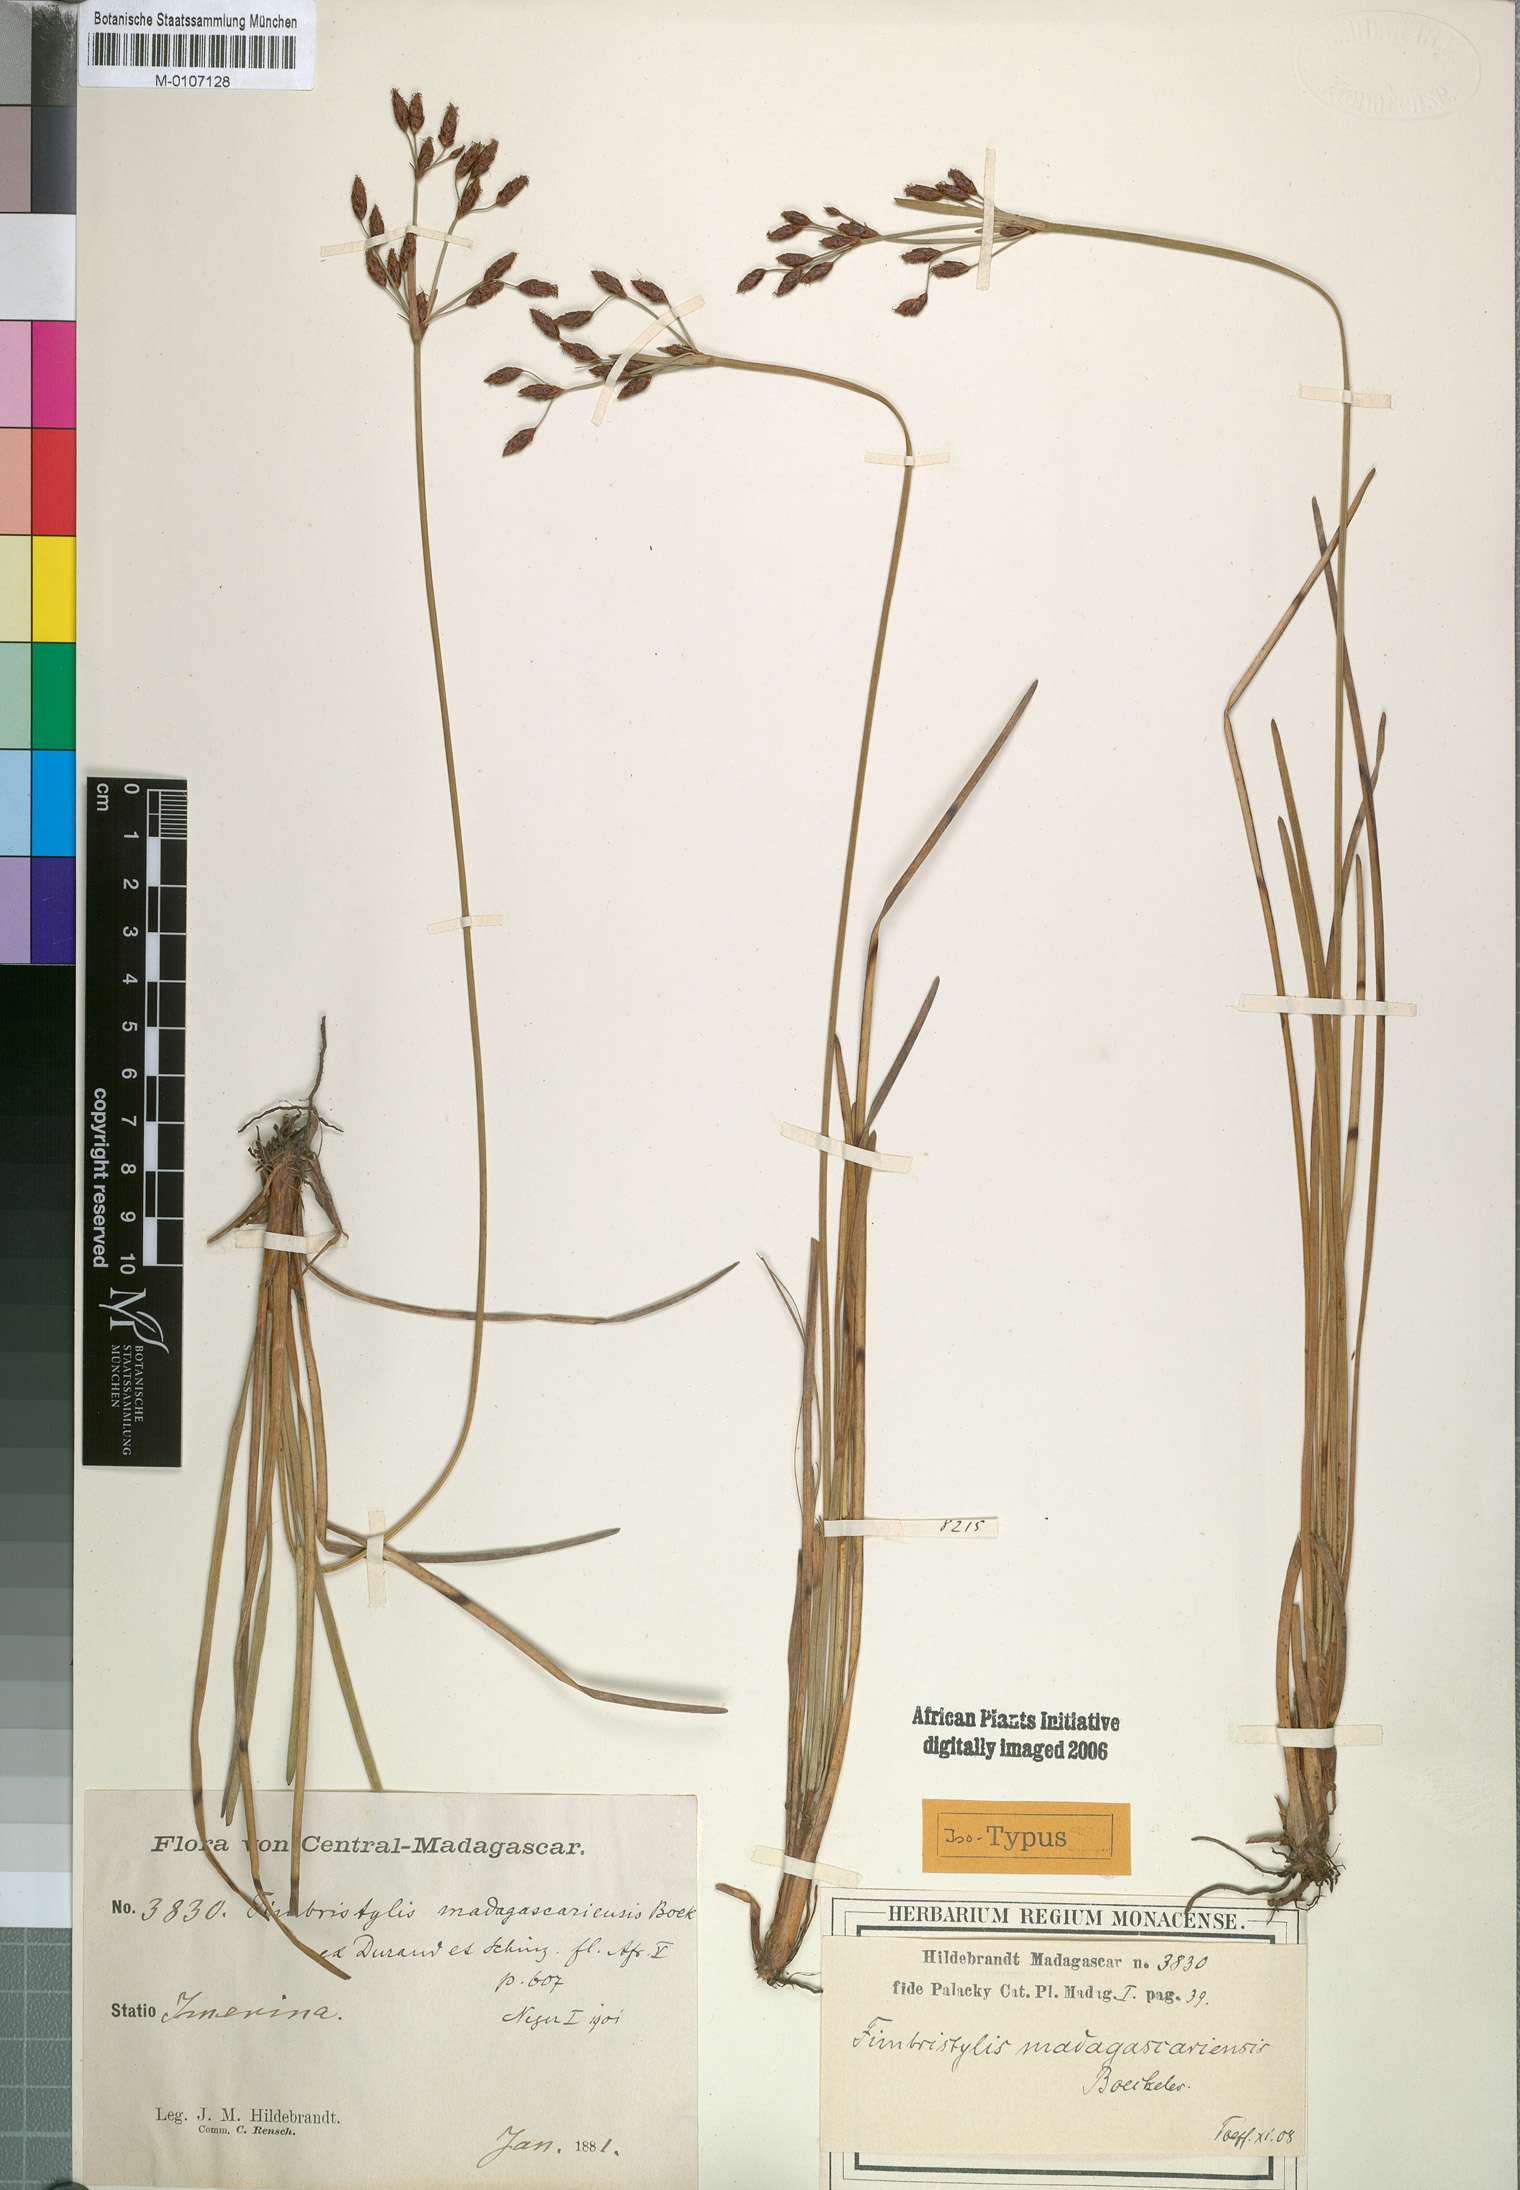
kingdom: Plantae
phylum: Tracheophyta
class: Liliopsida
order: Poales
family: Cyperaceae
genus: Fimbristylis
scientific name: Fimbristylis madagascariensis
